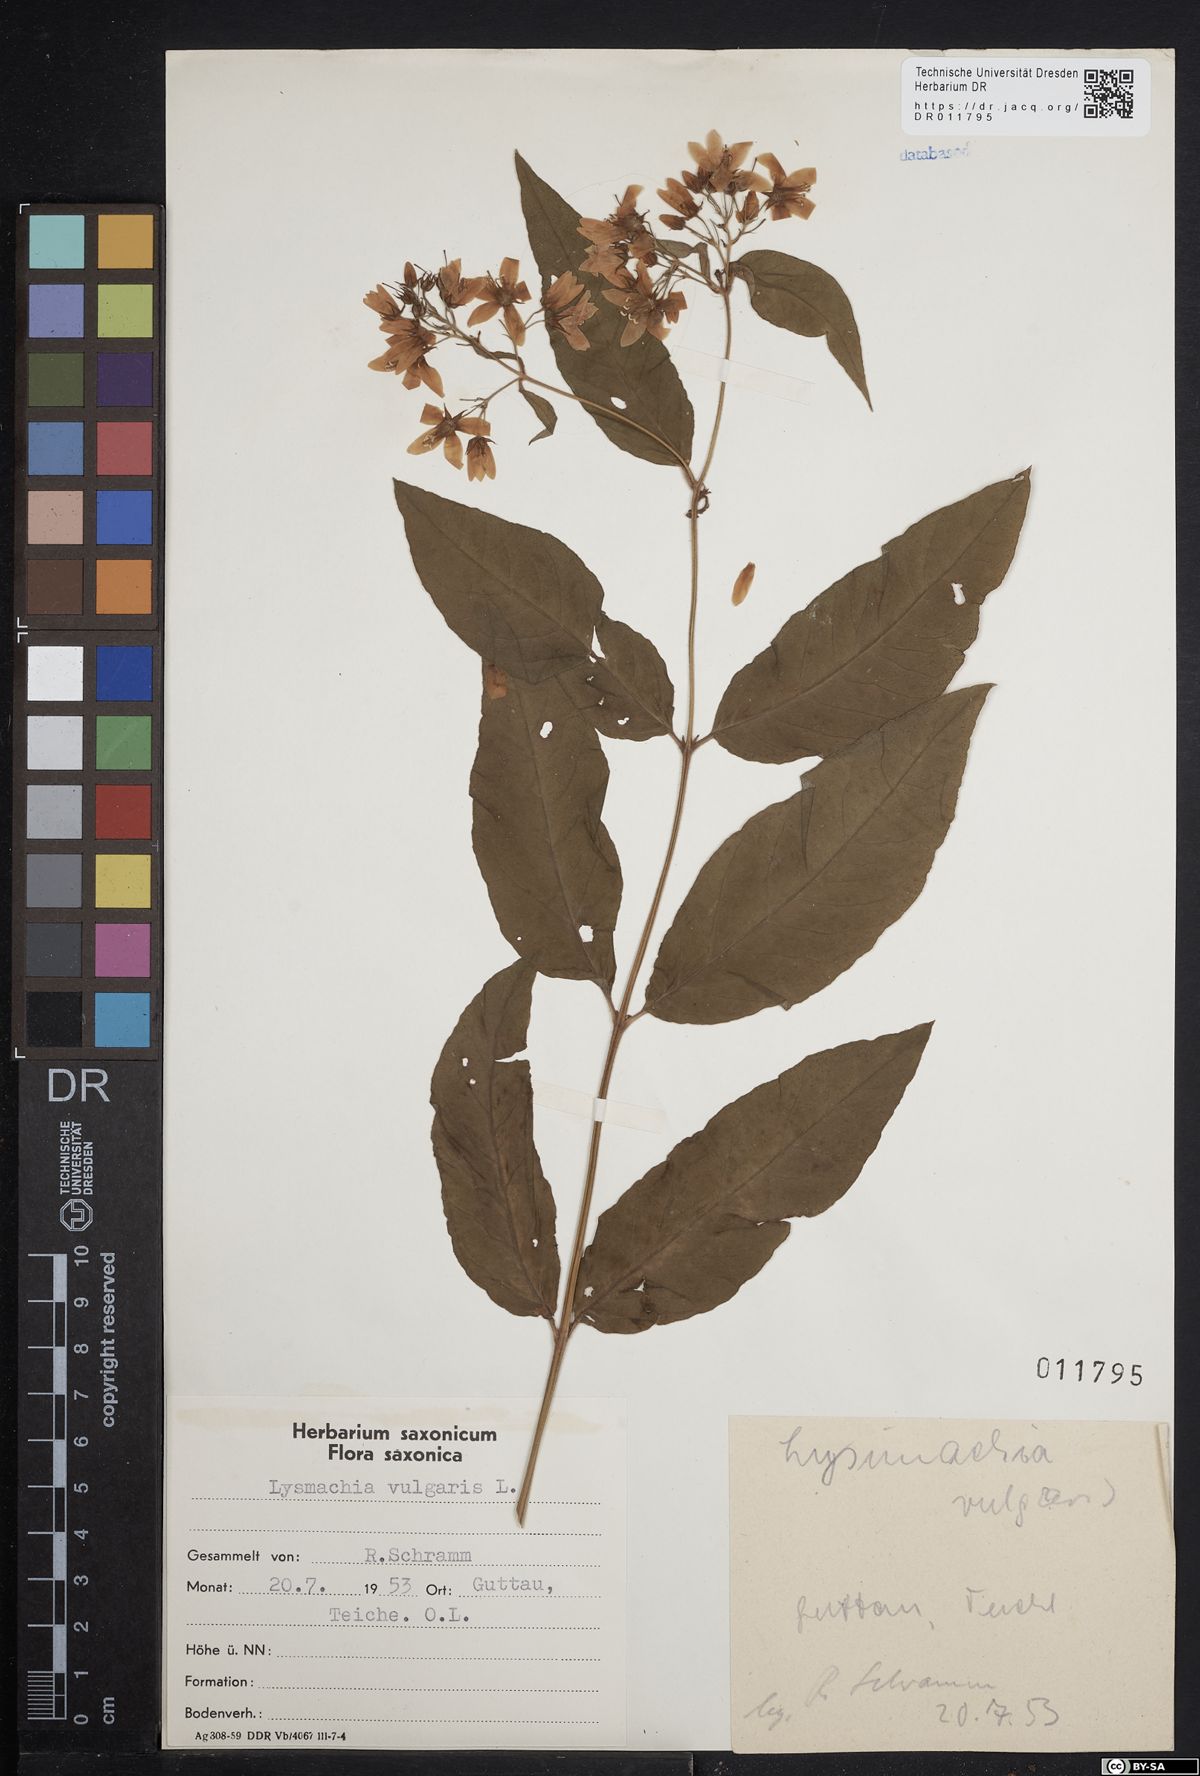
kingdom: Plantae
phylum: Tracheophyta
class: Magnoliopsida
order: Ericales
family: Primulaceae
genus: Lysimachia
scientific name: Lysimachia vulgaris
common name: Yellow loosestrife
